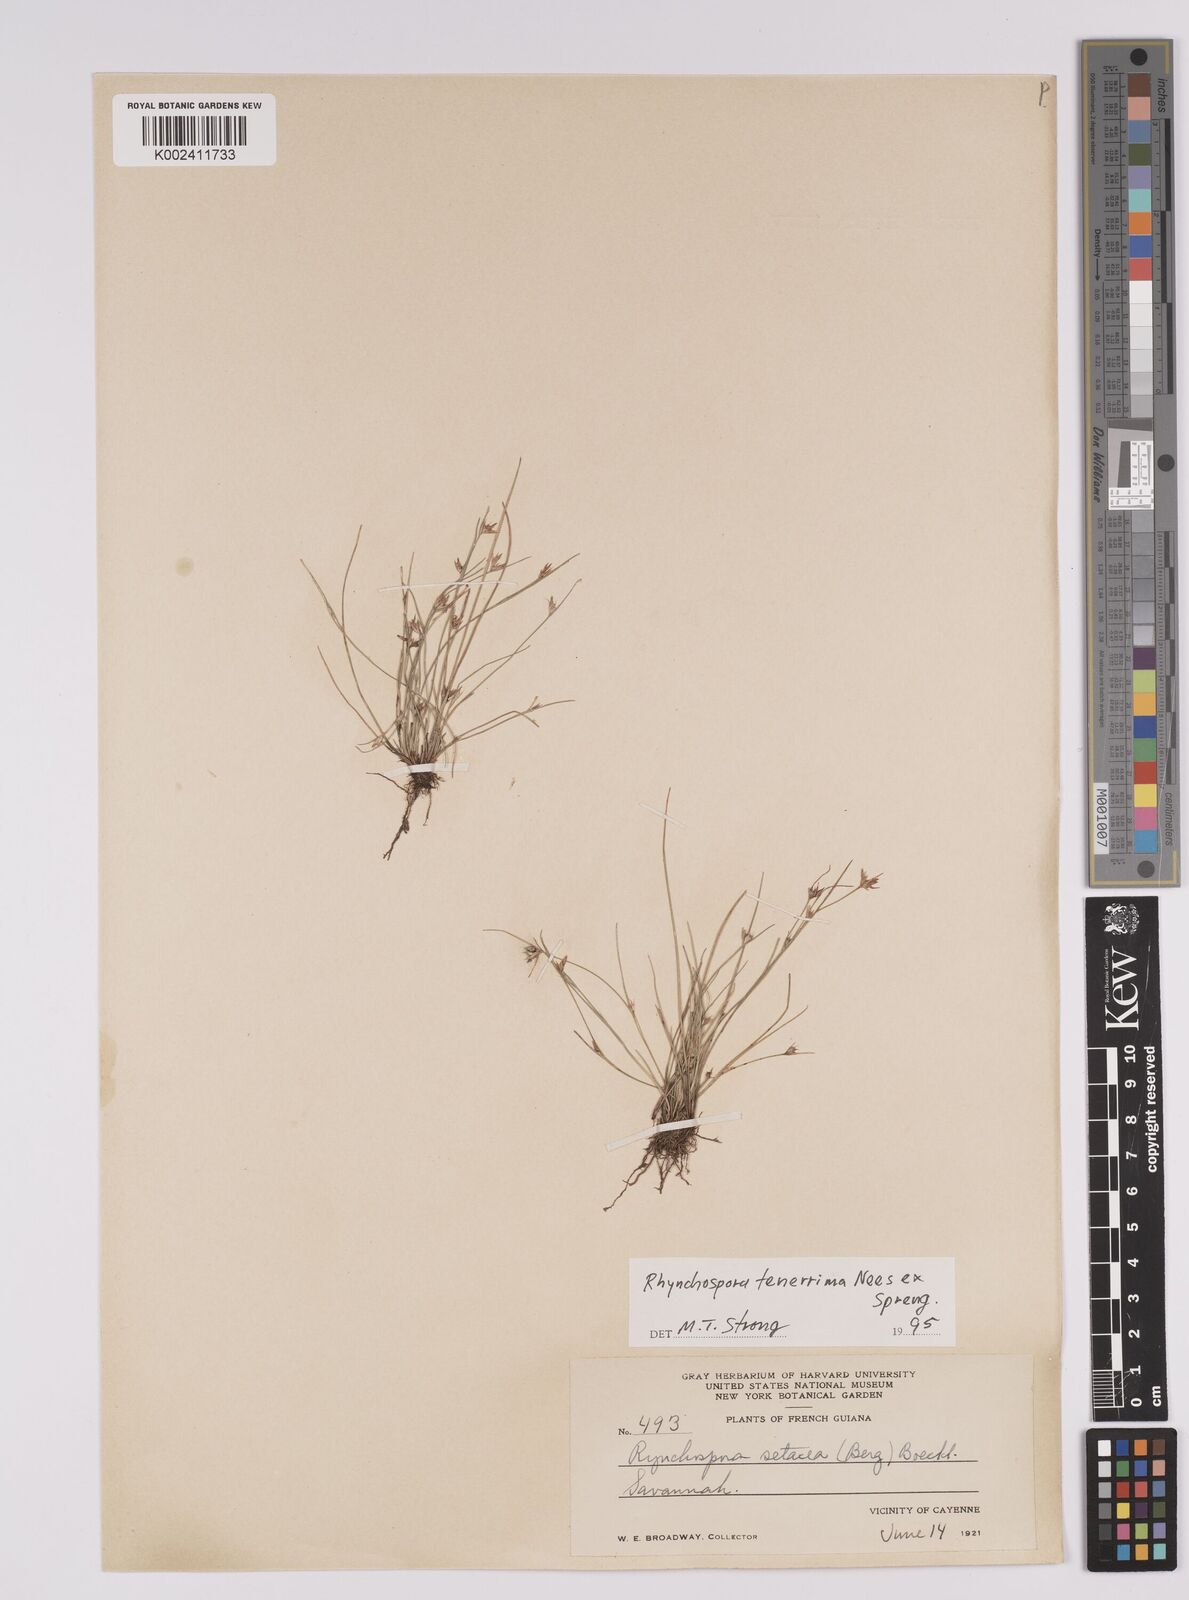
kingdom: Plantae
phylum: Tracheophyta
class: Liliopsida
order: Poales
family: Cyperaceae
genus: Rhynchospora
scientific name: Rhynchospora tenerrima
